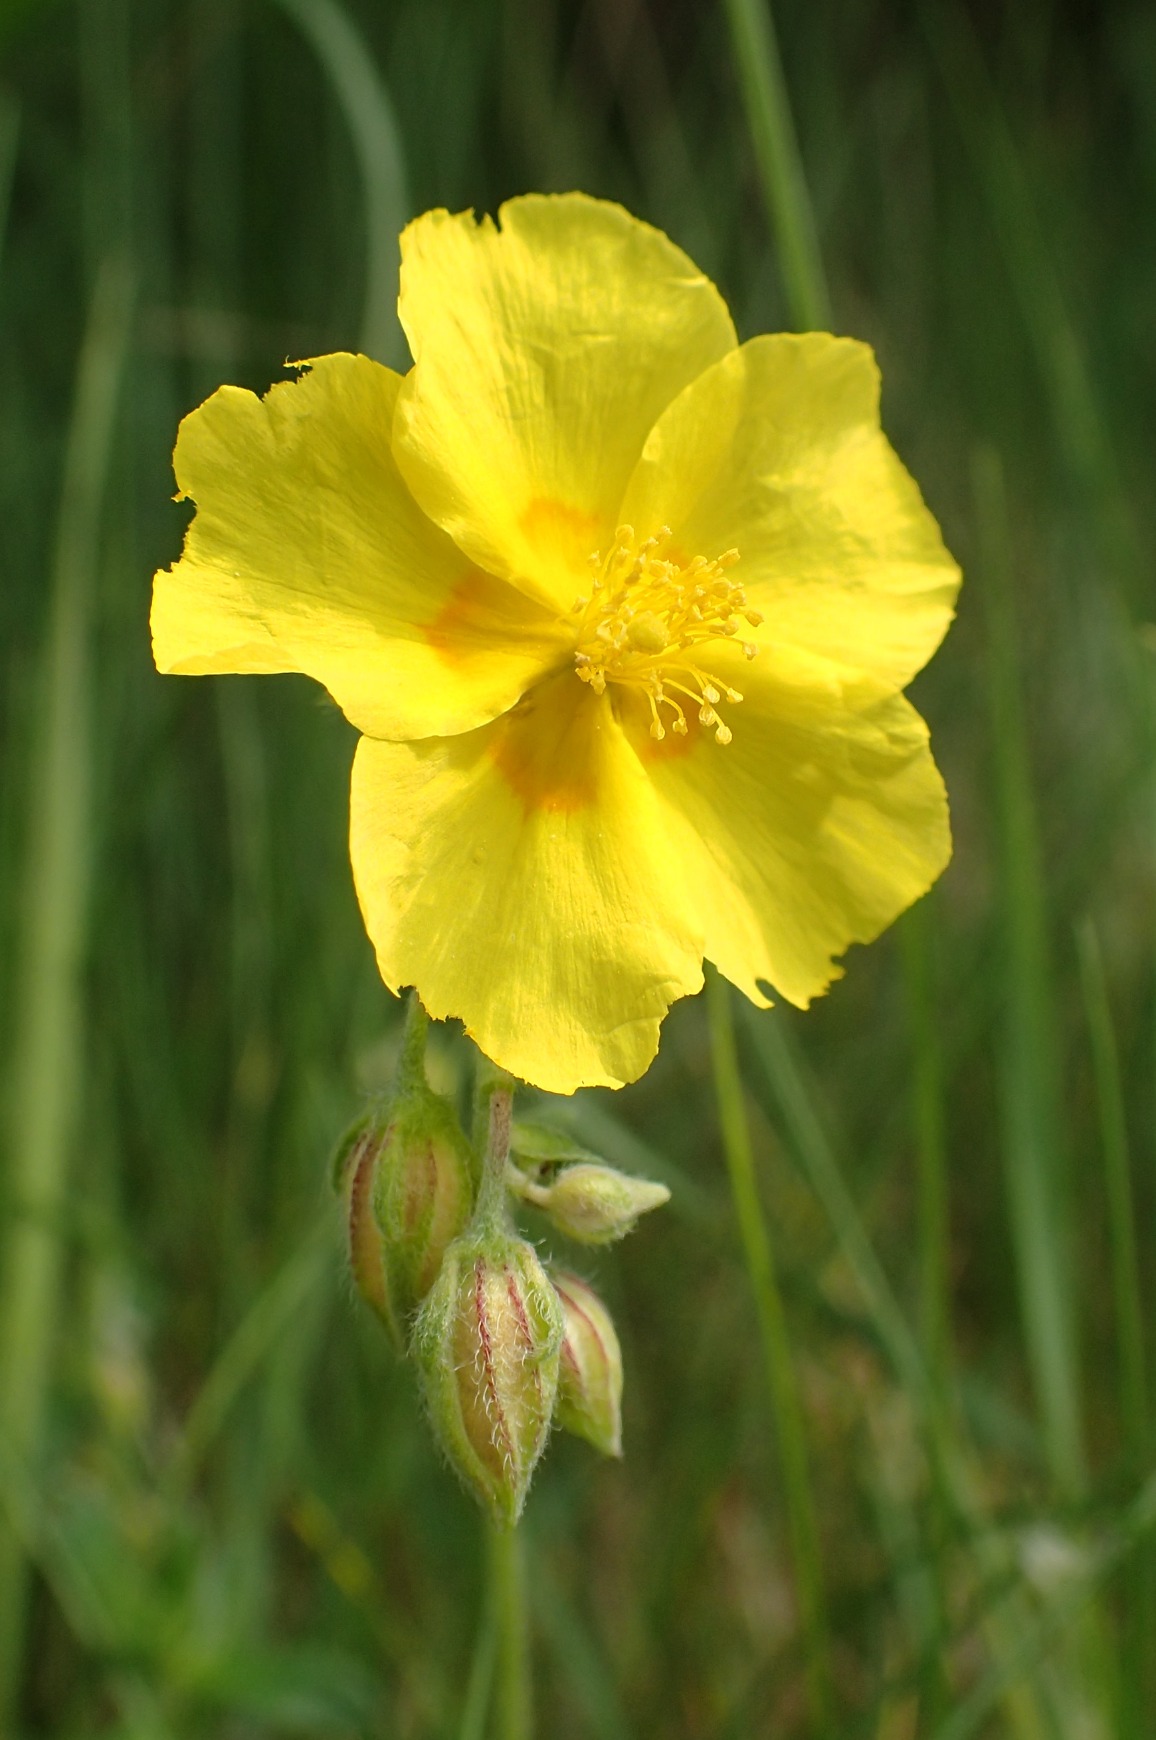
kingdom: Plantae
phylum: Tracheophyta
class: Magnoliopsida
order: Malvales
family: Cistaceae
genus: Helianthemum
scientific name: Helianthemum nummularium
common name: Filtet soløje
